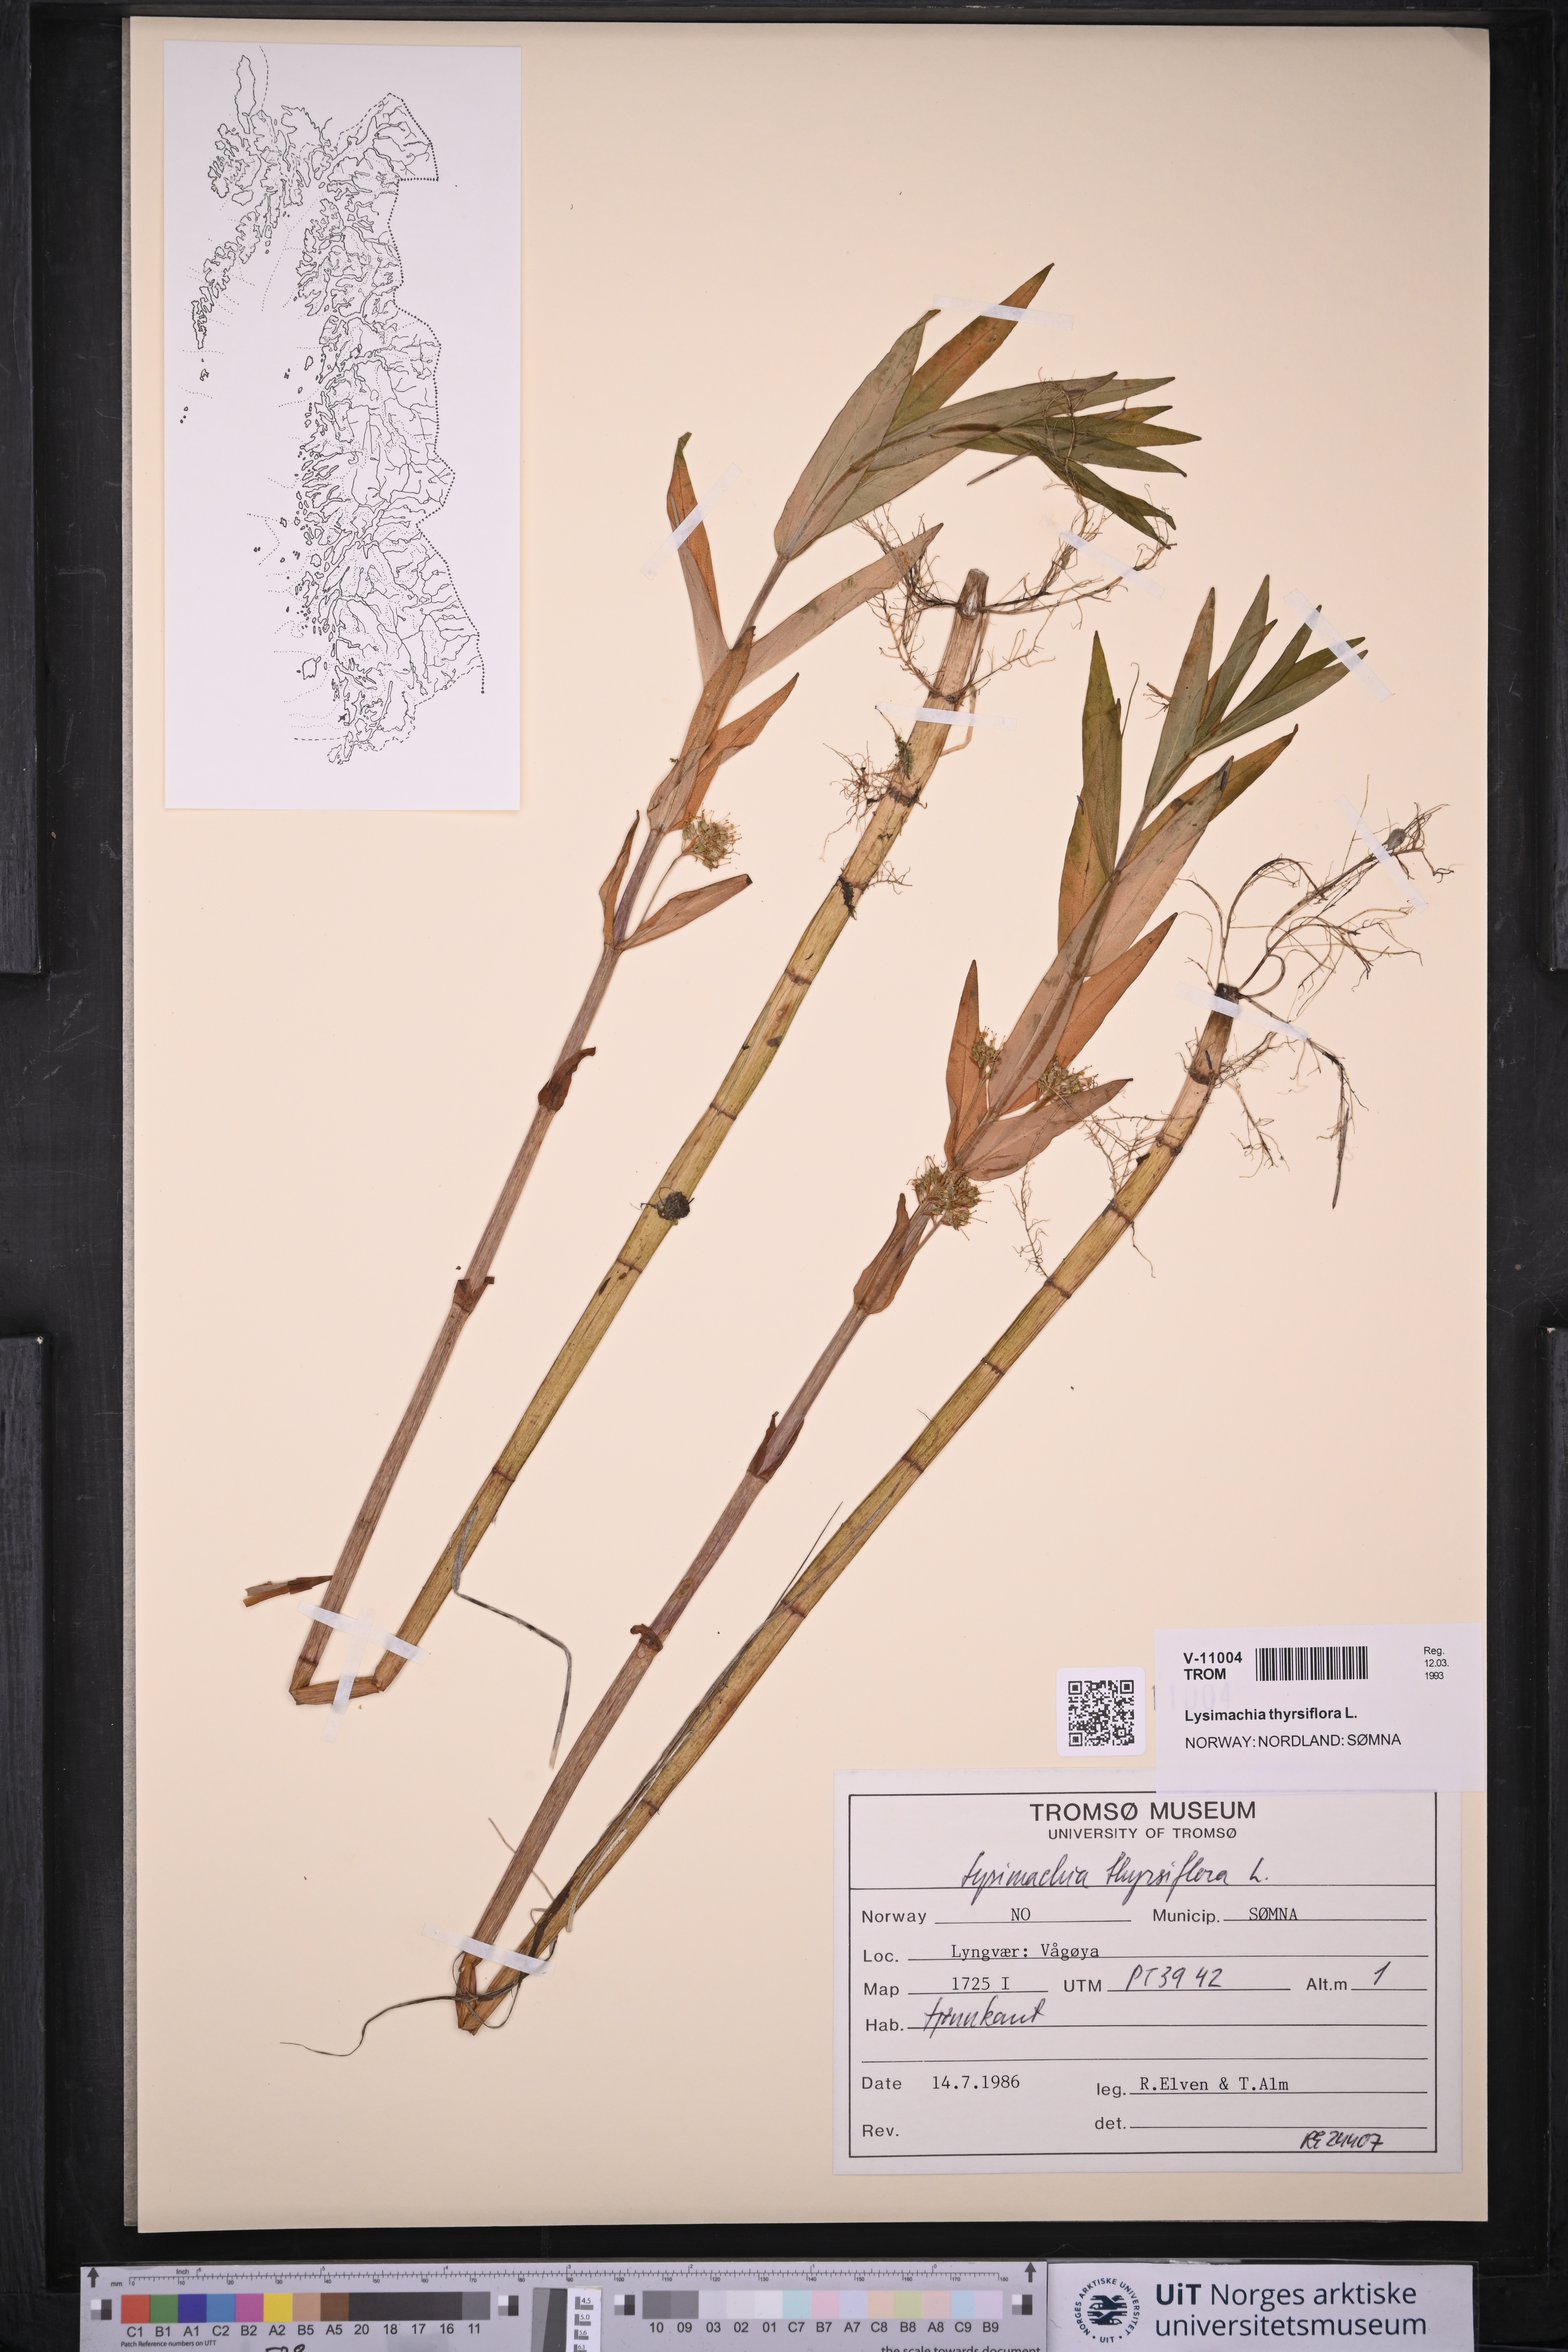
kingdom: Plantae
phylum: Tracheophyta
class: Magnoliopsida
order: Ericales
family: Primulaceae
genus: Lysimachia
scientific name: Lysimachia thyrsiflora
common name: Tufted loosestrife
